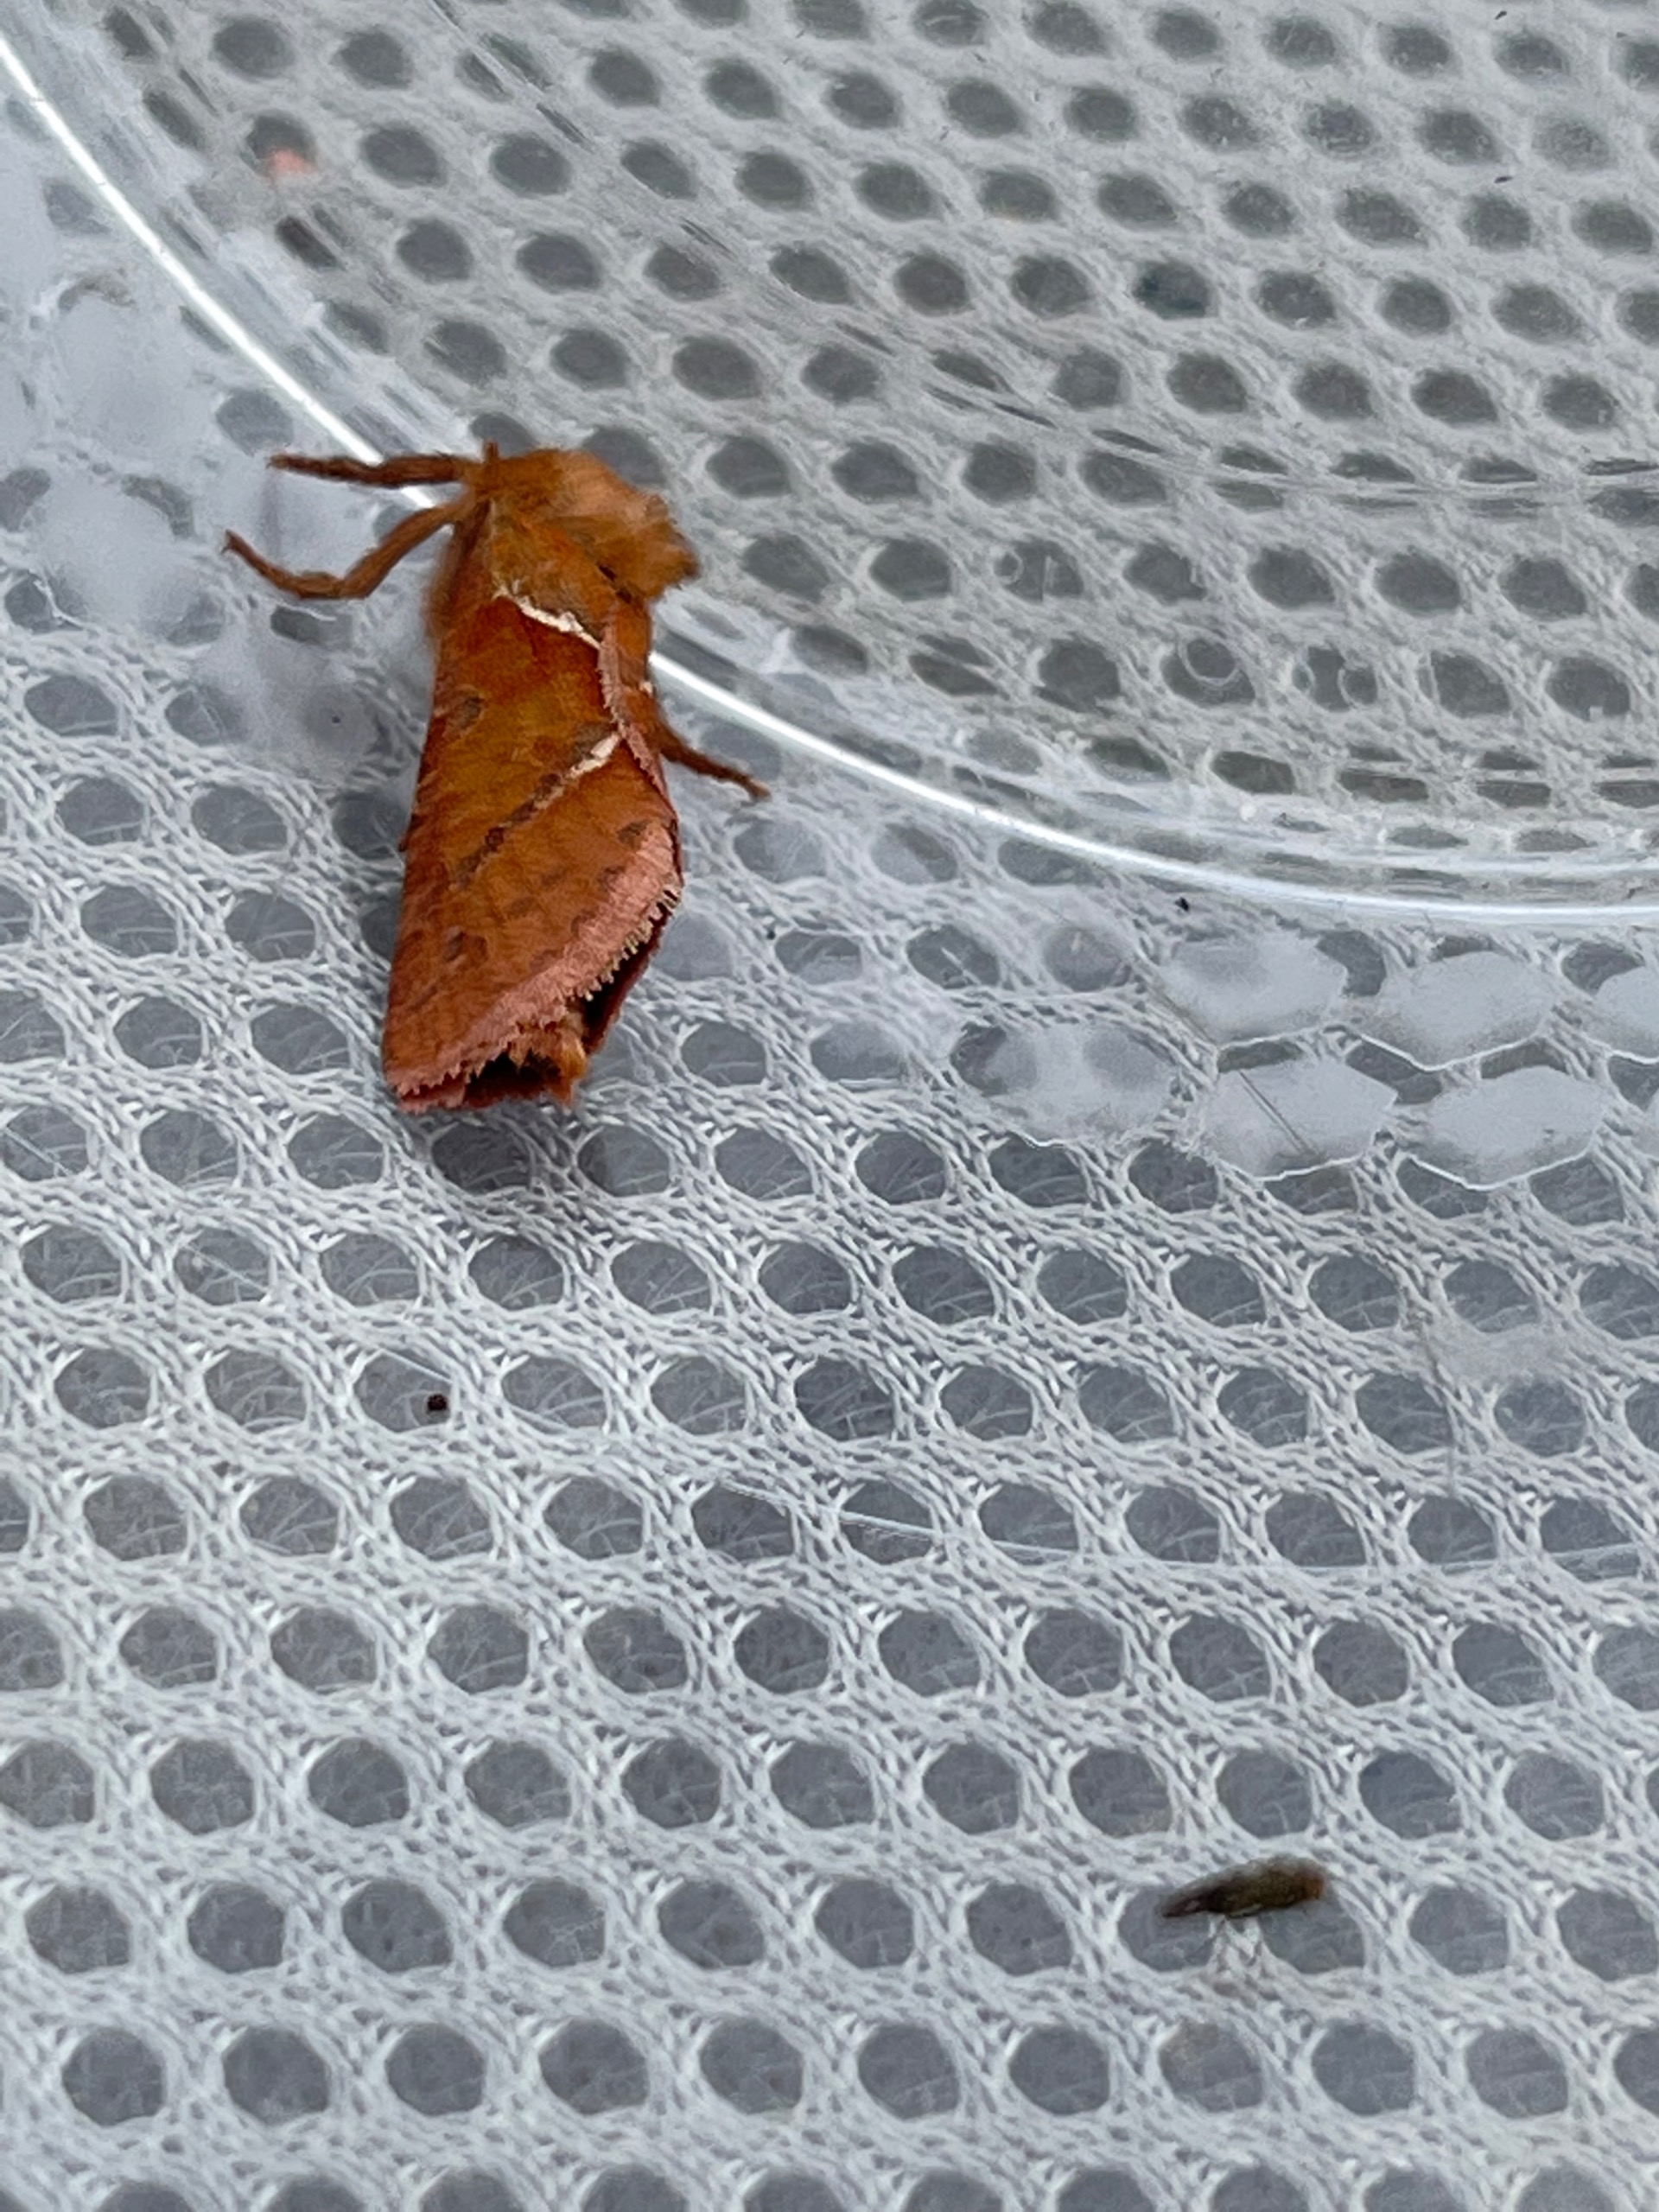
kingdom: Animalia
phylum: Arthropoda
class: Insecta
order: Lepidoptera
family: Hepialidae
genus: Triodia
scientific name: Triodia sylvina
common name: Skræpperodæder
